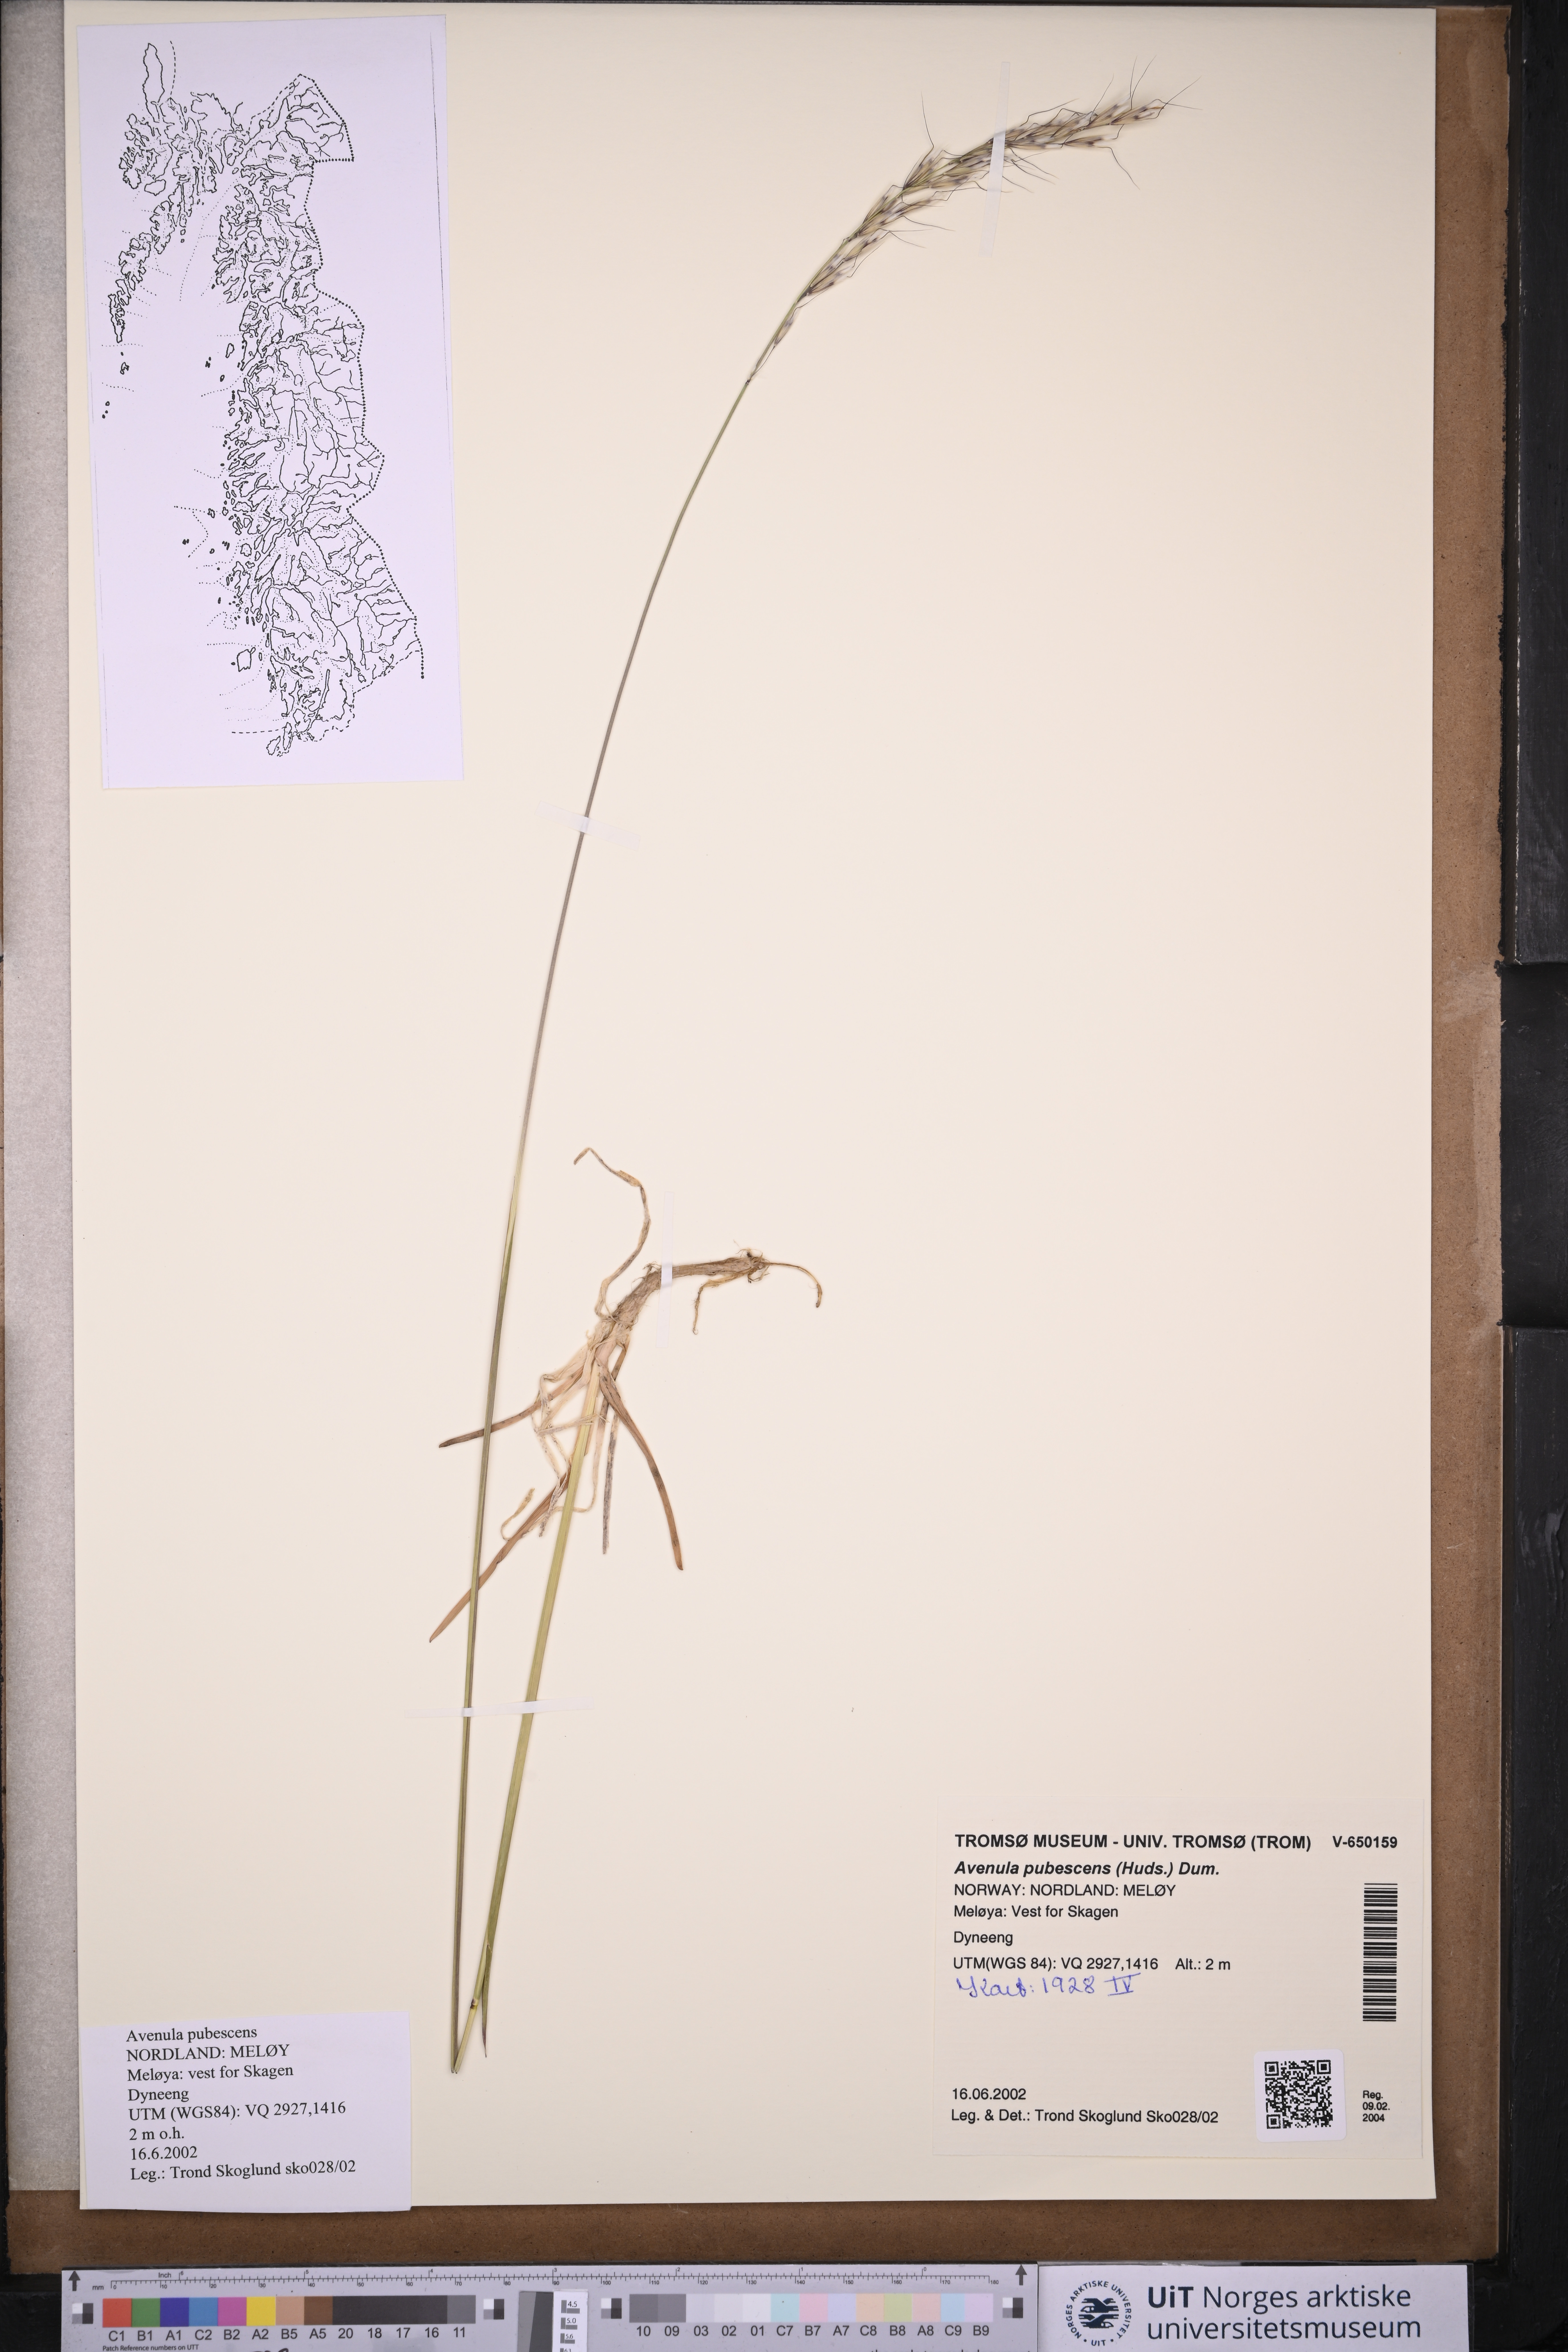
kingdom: Plantae
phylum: Tracheophyta
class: Liliopsida
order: Poales
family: Poaceae
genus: Avenula
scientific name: Avenula pubescens
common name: Downy alpine oatgrass
